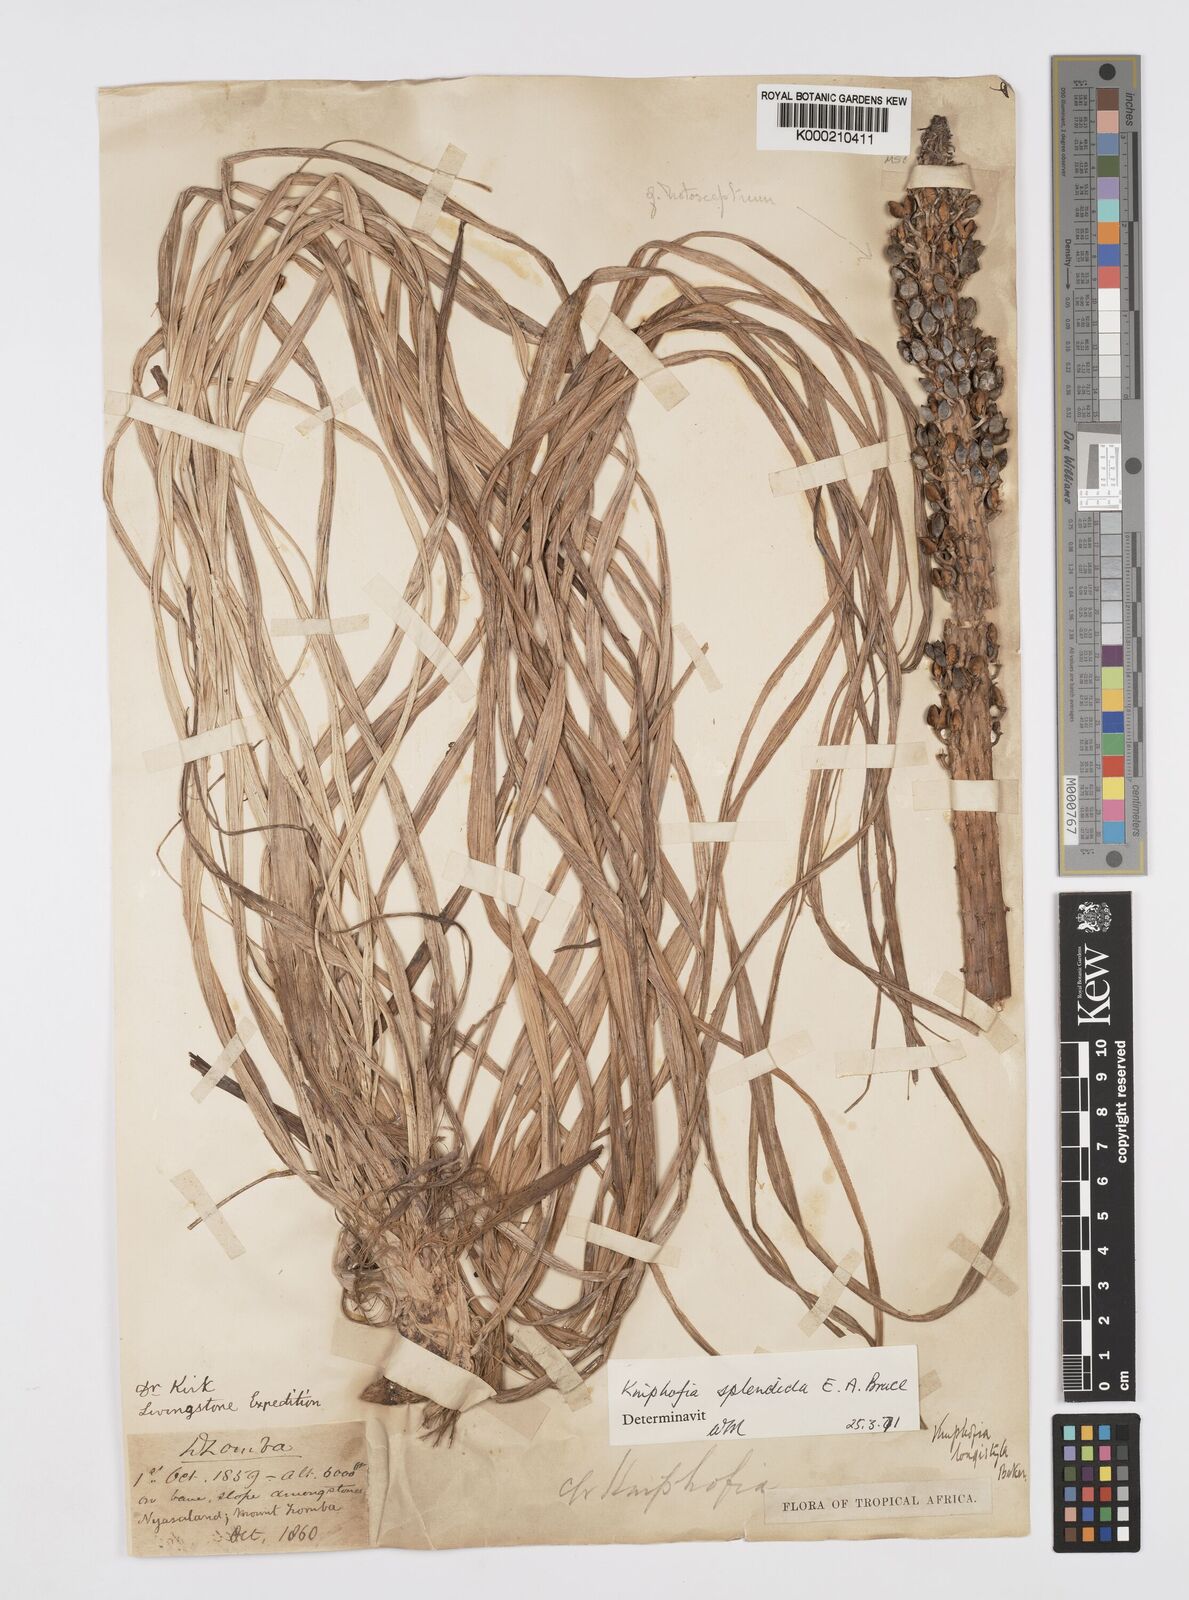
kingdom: Plantae
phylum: Tracheophyta
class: Liliopsida
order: Asparagales
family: Asphodelaceae
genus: Kniphofia
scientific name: Kniphofia splendida
